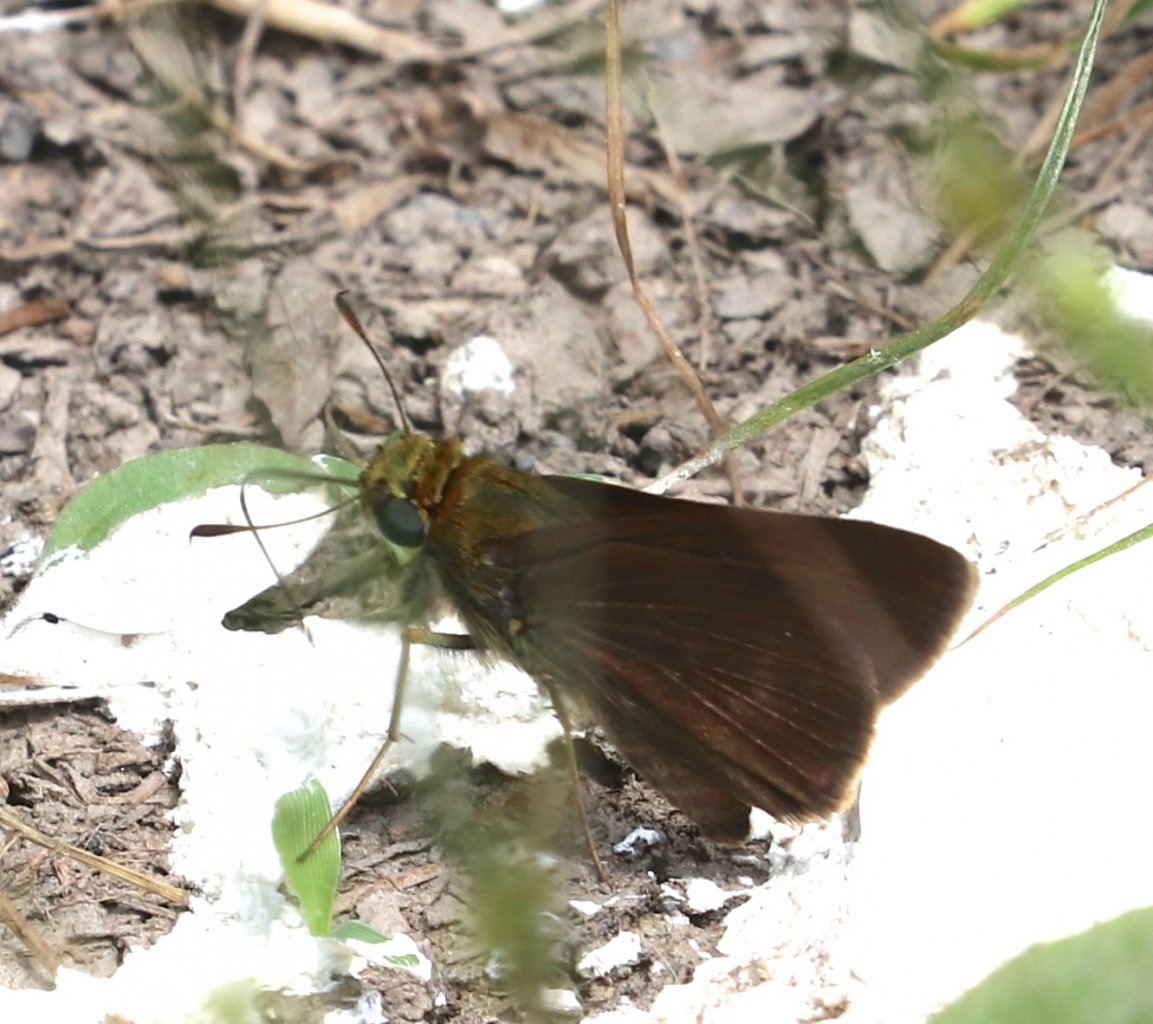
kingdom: Animalia
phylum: Arthropoda
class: Insecta
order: Lepidoptera
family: Hesperiidae
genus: Euphyes
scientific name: Euphyes vestris
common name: Dun Skipper
